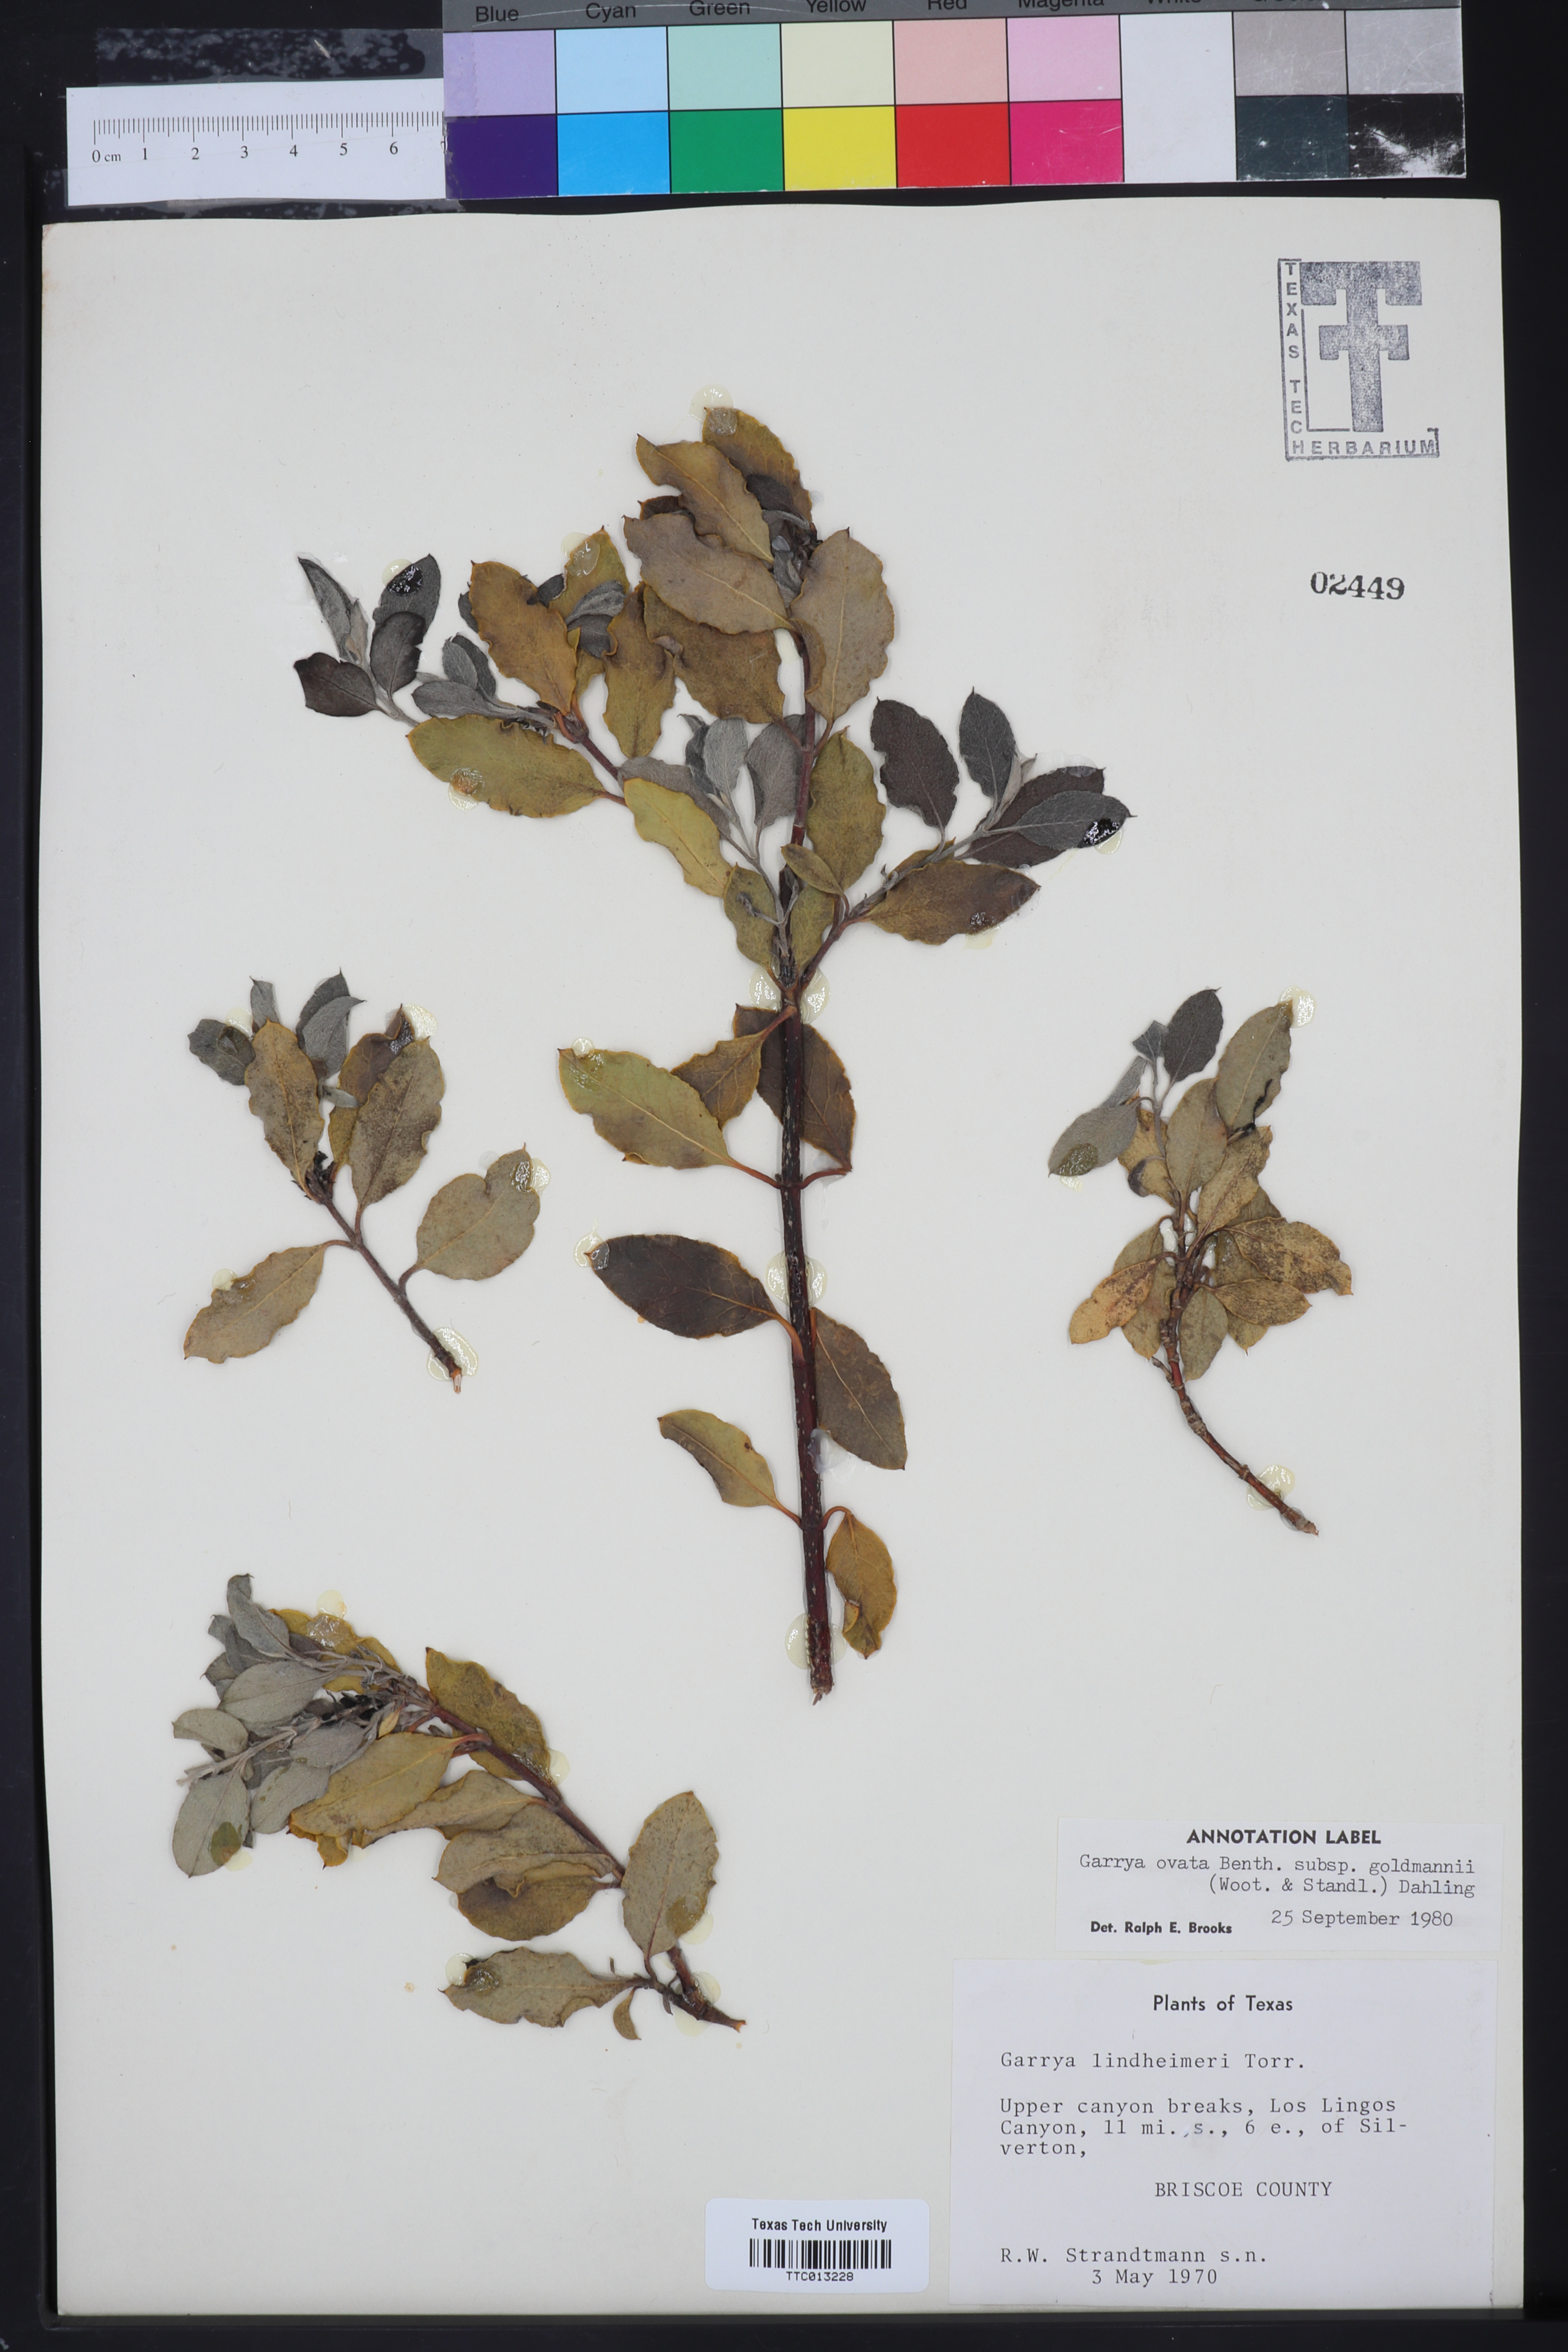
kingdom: Plantae
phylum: Tracheophyta
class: Magnoliopsida
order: Garryales
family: Garryaceae
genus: Garrya
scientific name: Garrya ovata
